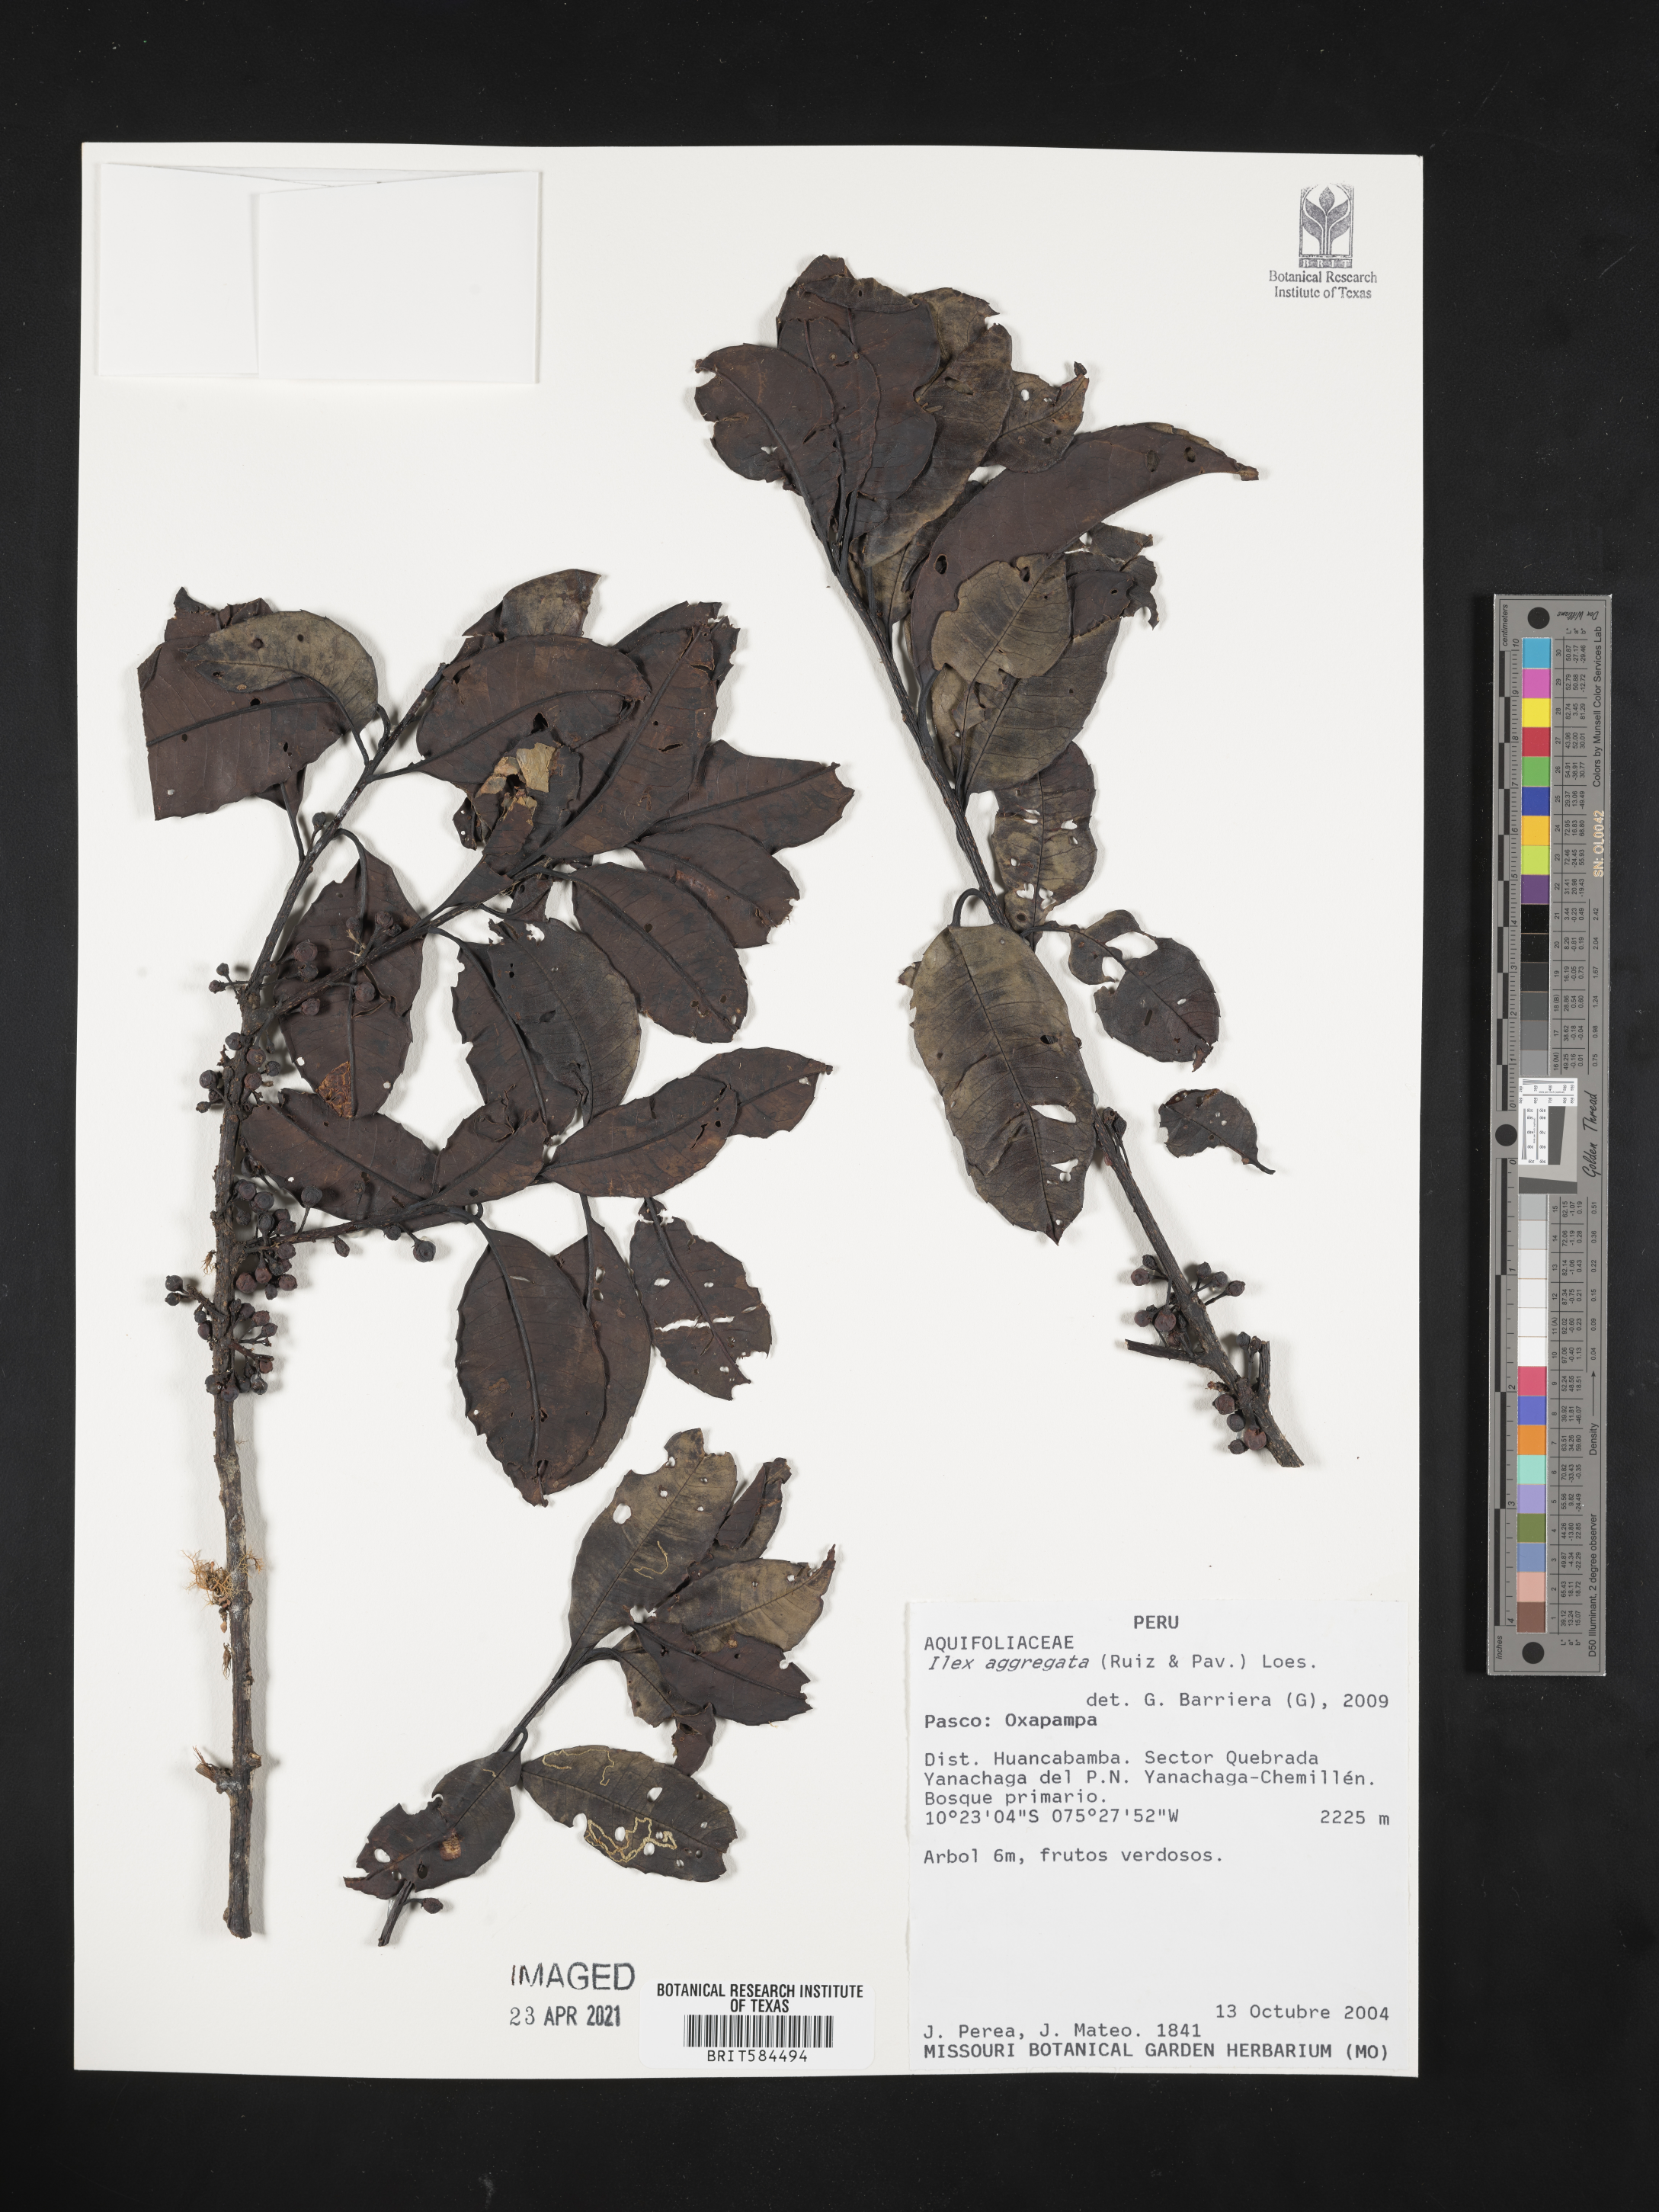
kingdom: Plantae
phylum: Tracheophyta
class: Magnoliopsida
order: Aquifoliales
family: Aquifoliaceae
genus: Ilex
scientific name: Ilex aggregata
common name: Clustered holly
